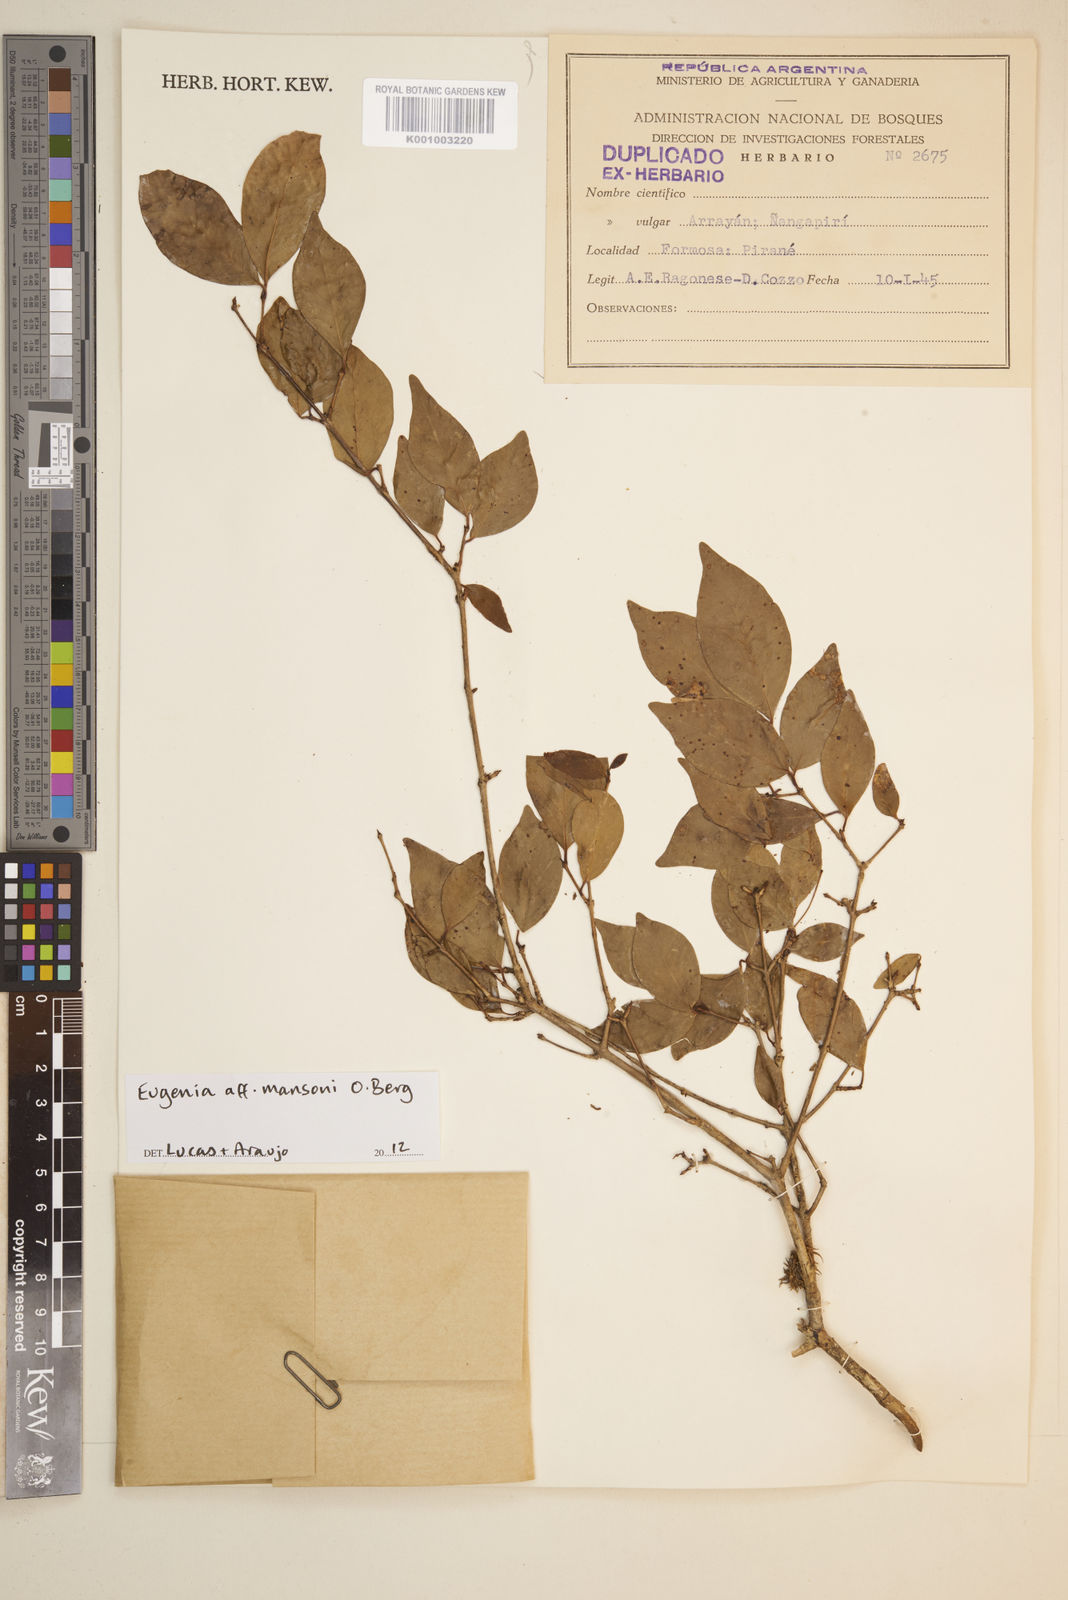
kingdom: Plantae
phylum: Tracheophyta
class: Magnoliopsida
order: Myrtales
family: Myrtaceae
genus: Eugenia
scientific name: Eugenia
